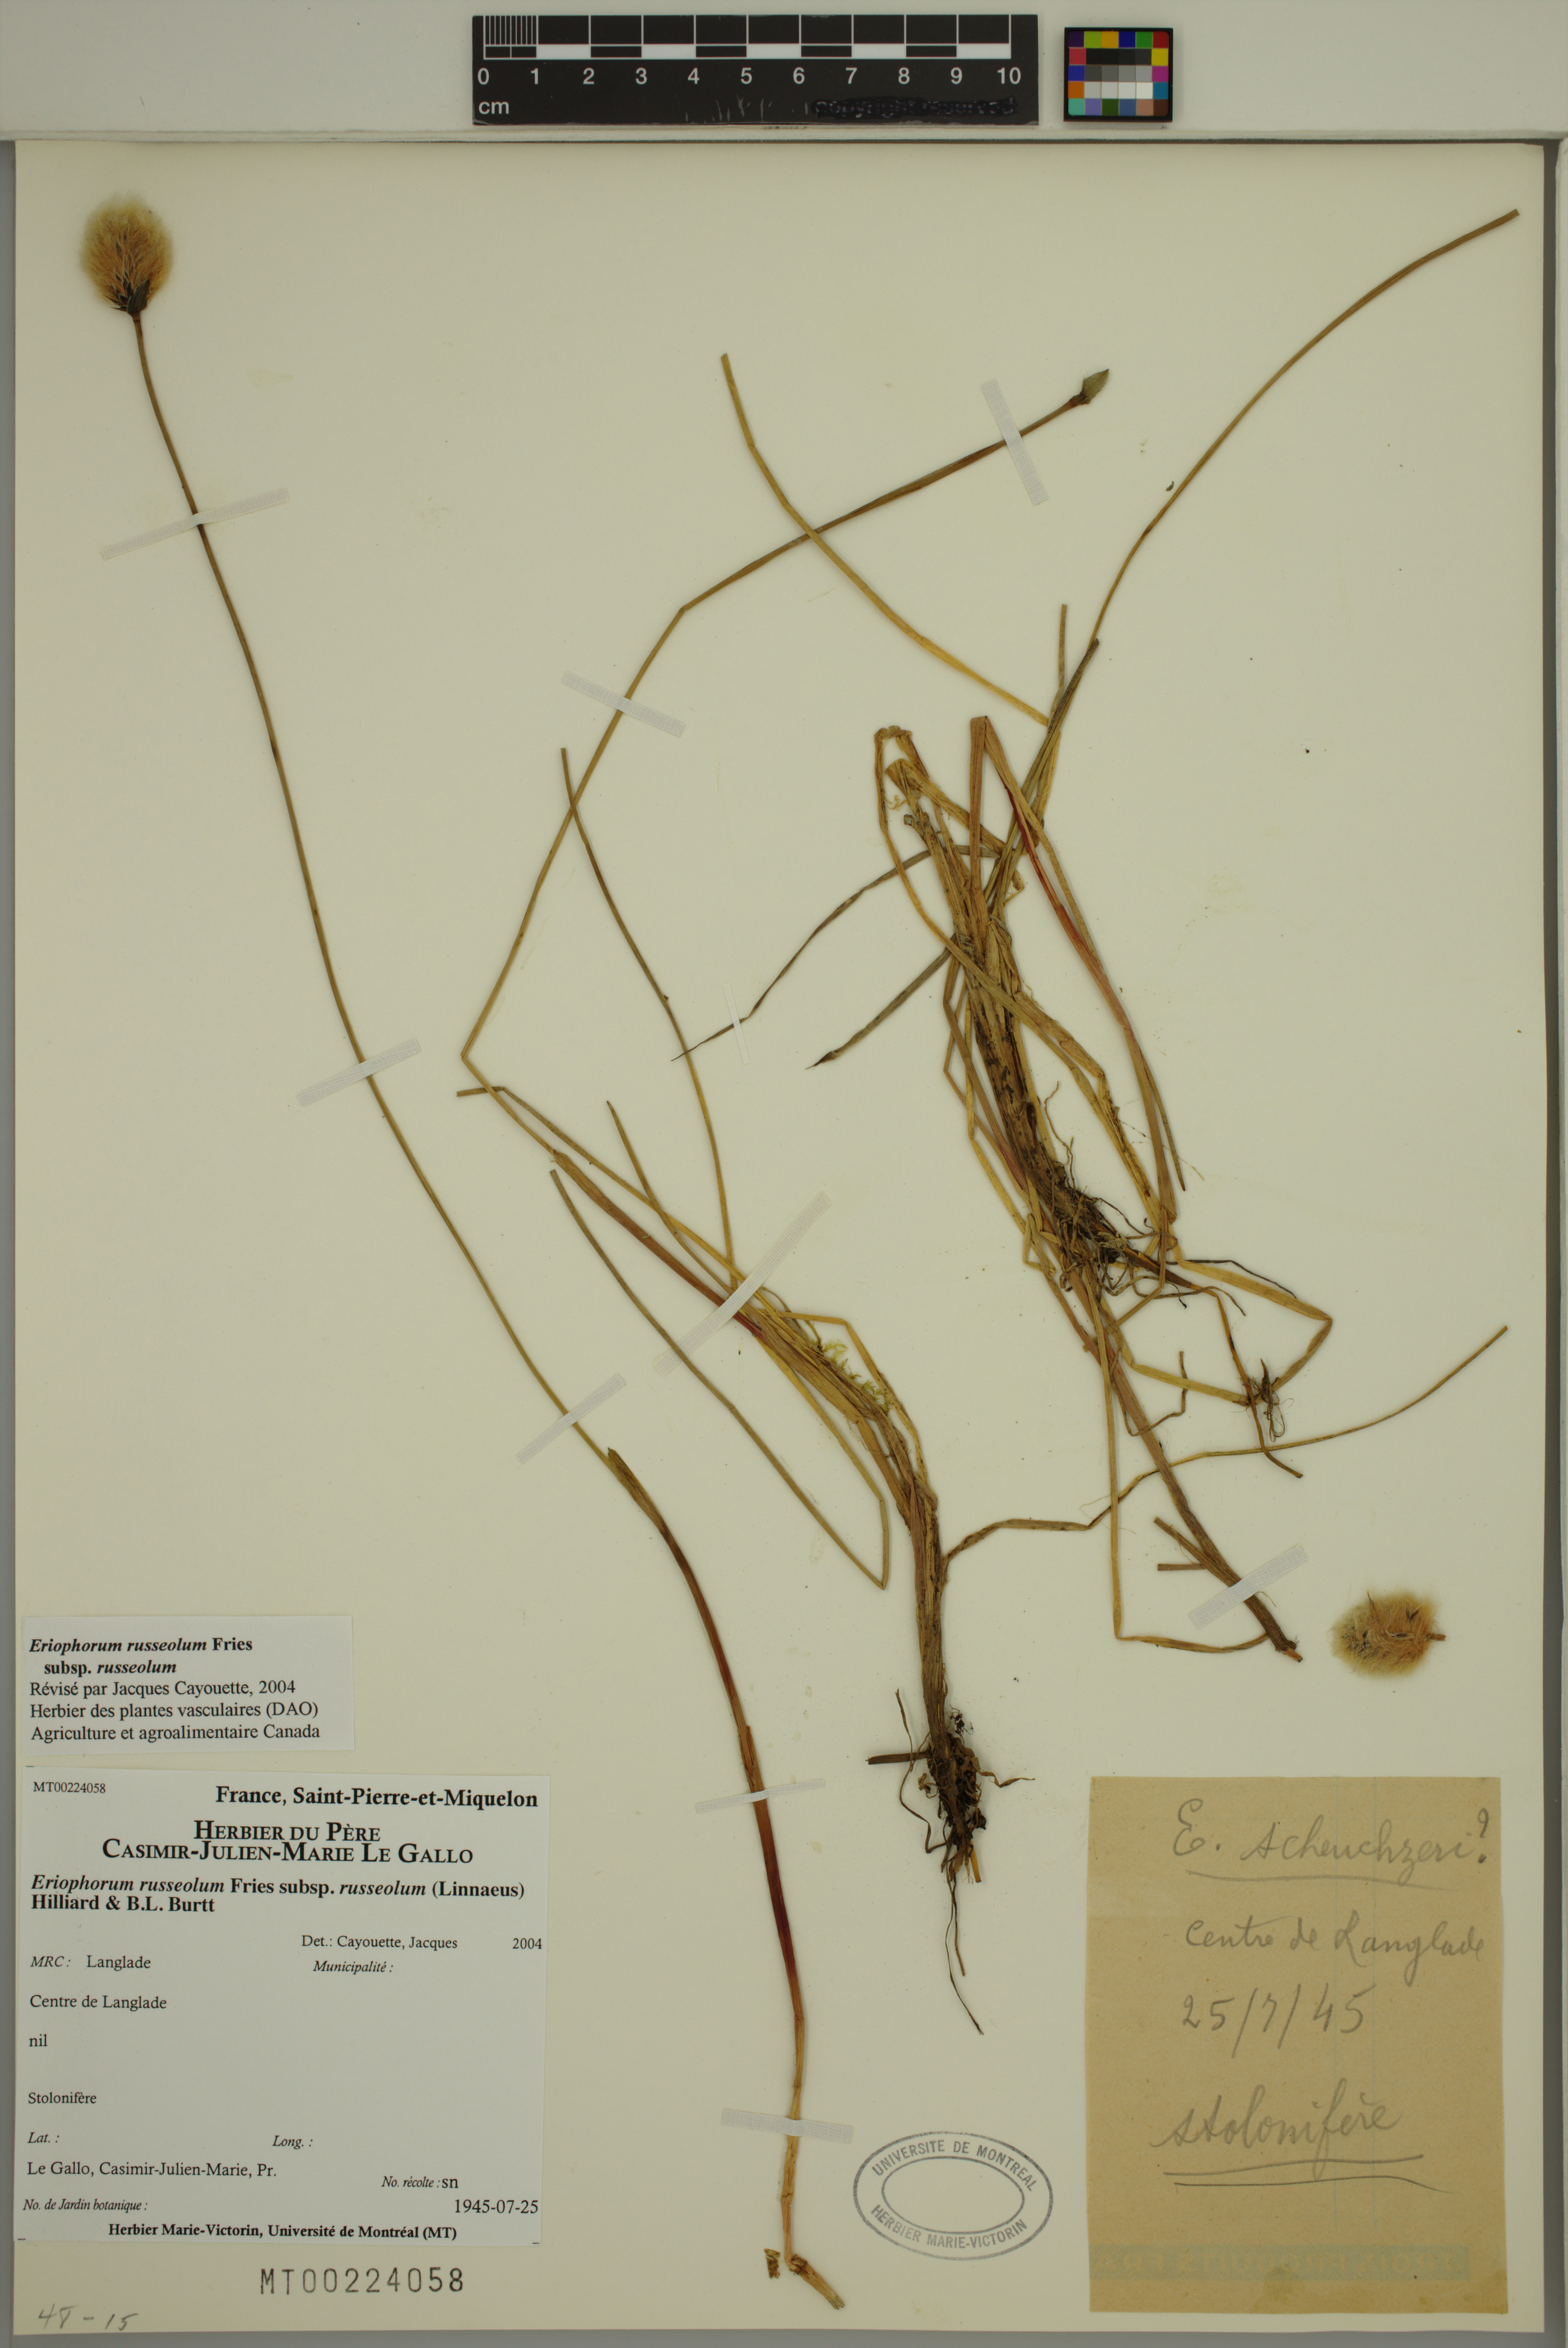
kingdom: Plantae
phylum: Tracheophyta
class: Liliopsida
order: Poales
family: Cyperaceae
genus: Eriophorum
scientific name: Eriophorum russeolum
